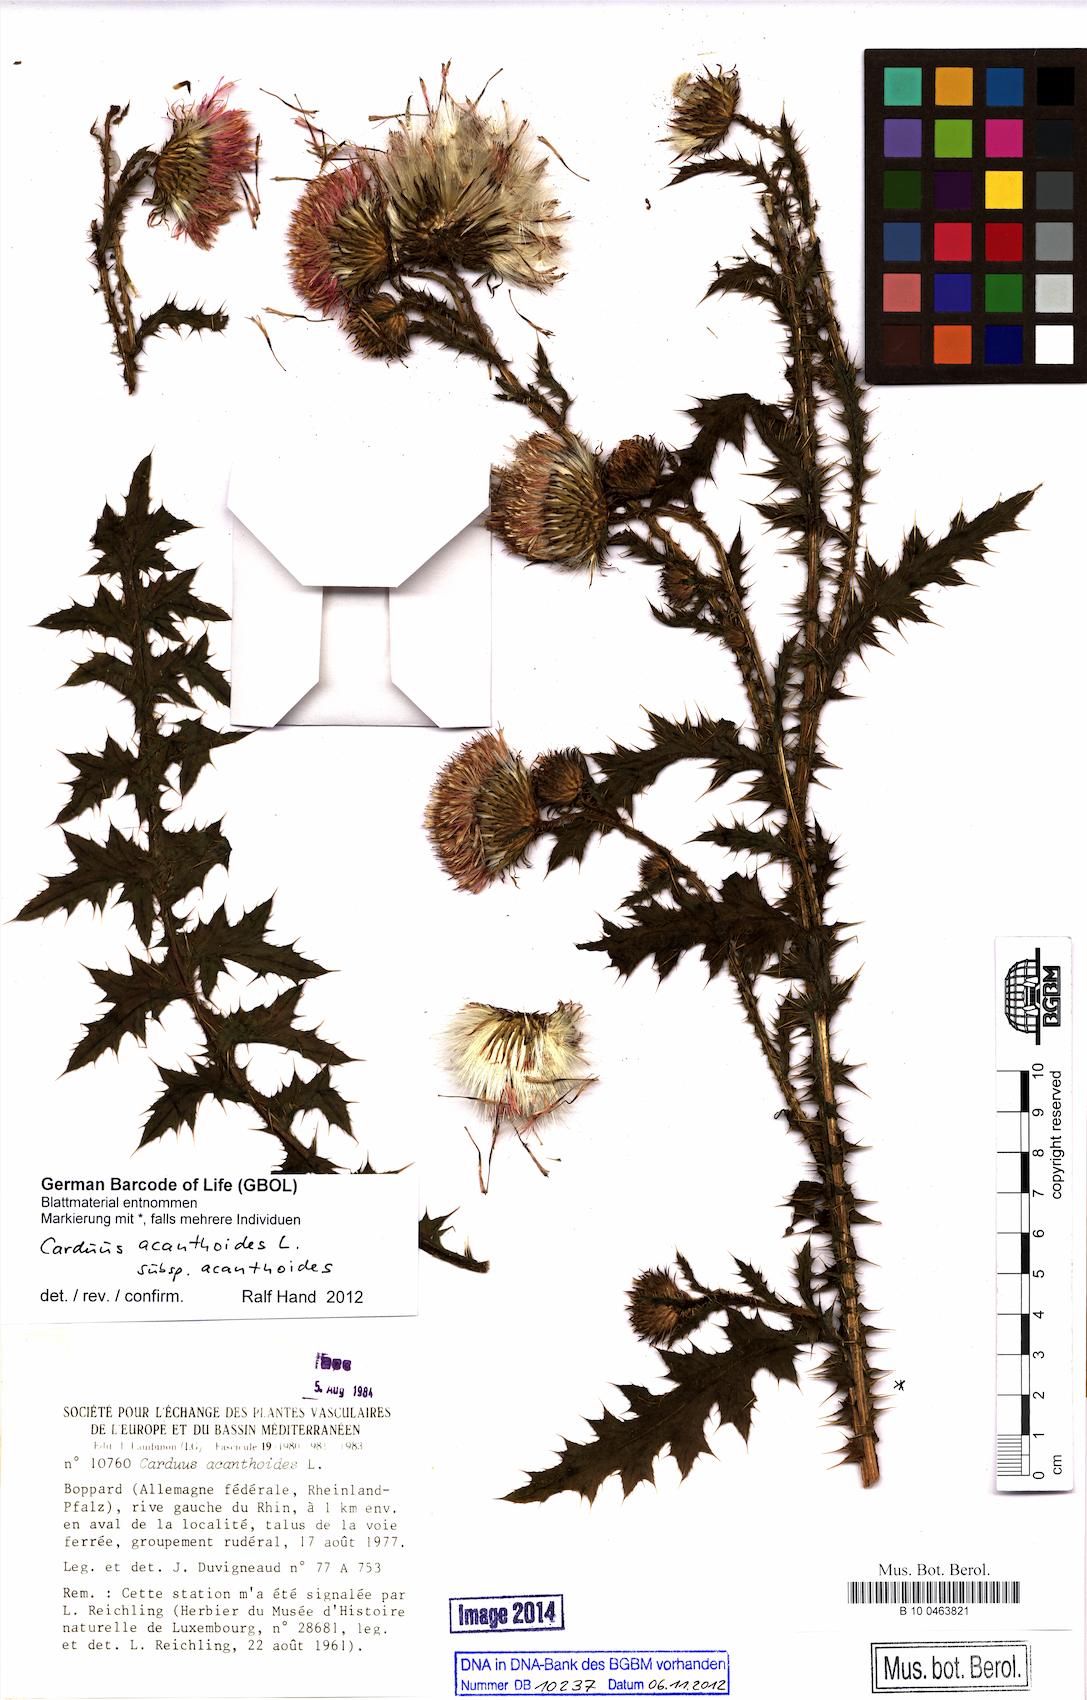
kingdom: Plantae
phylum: Tracheophyta
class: Magnoliopsida
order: Asterales
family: Asteraceae
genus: Carduus
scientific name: Carduus acanthoides
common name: Plumeless thistle
